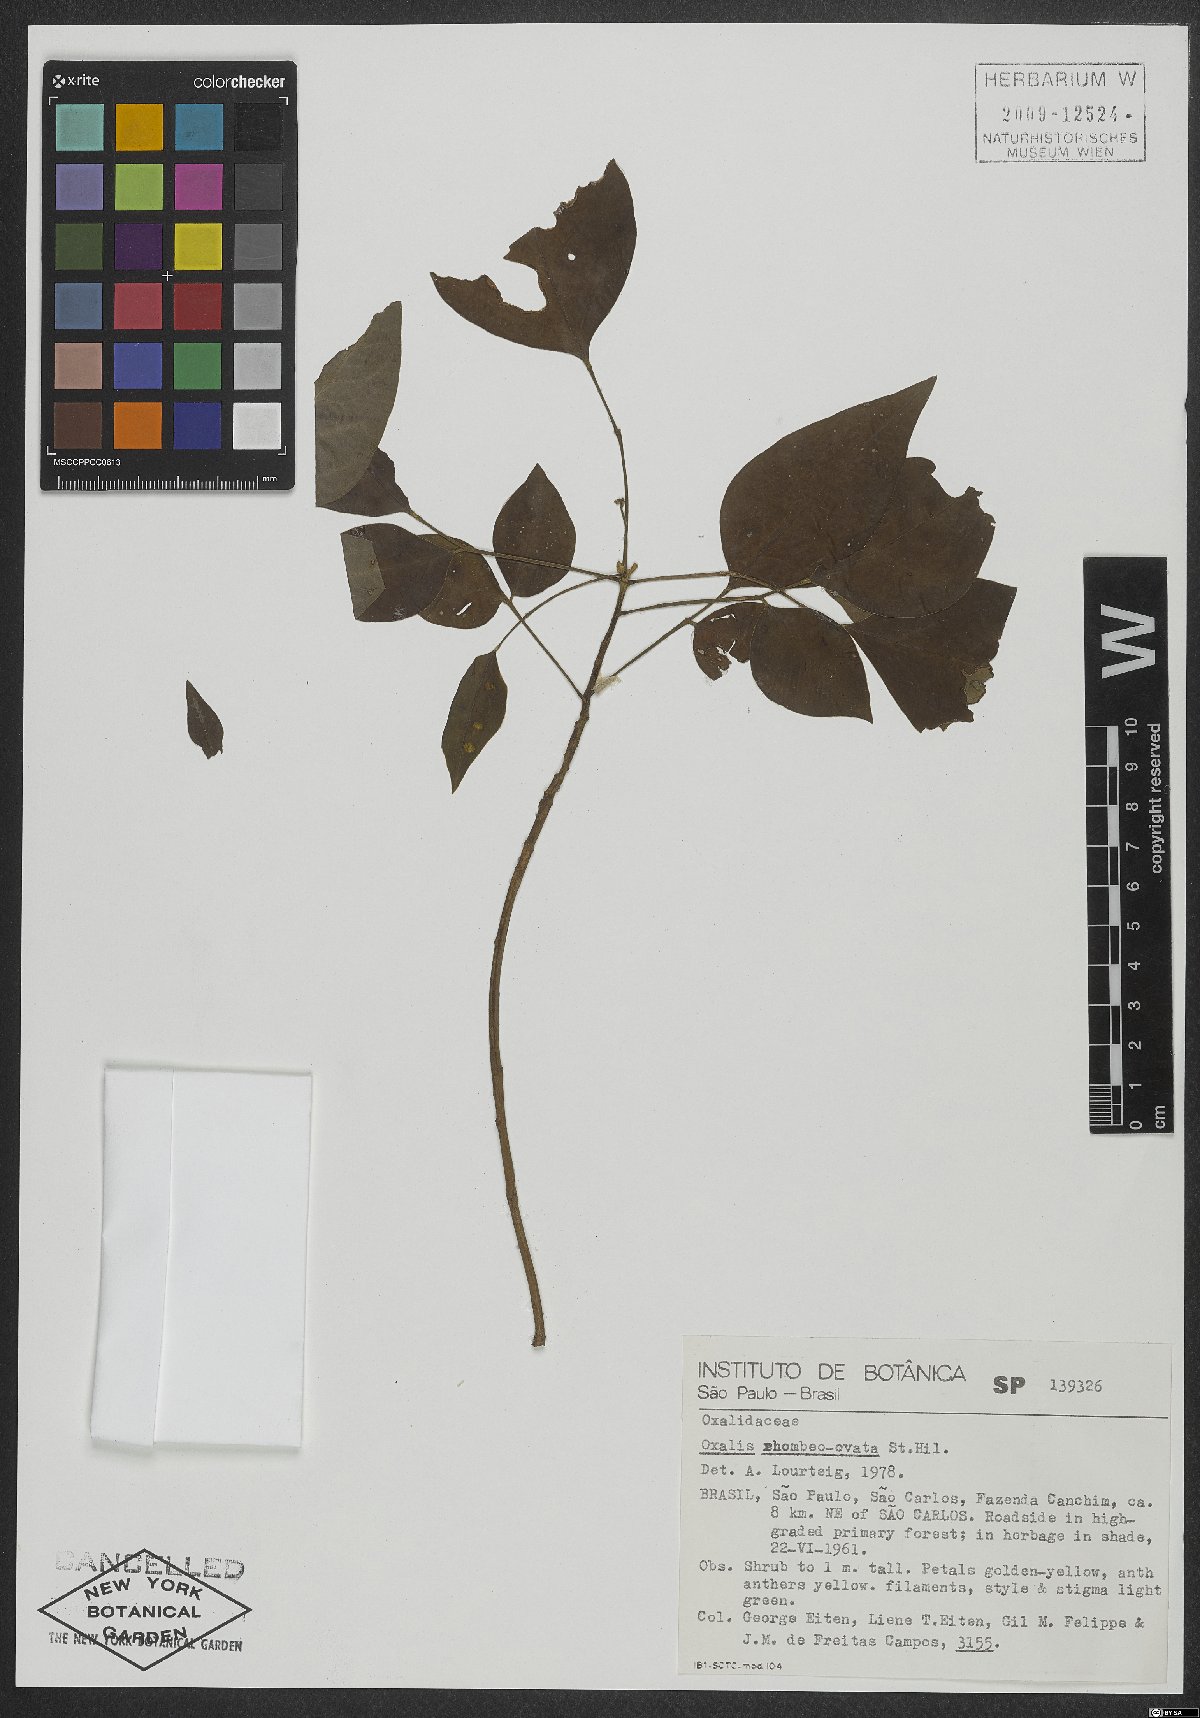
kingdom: Plantae
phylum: Tracheophyta
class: Magnoliopsida
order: Oxalidales
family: Oxalidaceae
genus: Oxalis
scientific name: Oxalis rhombeo-ovata
